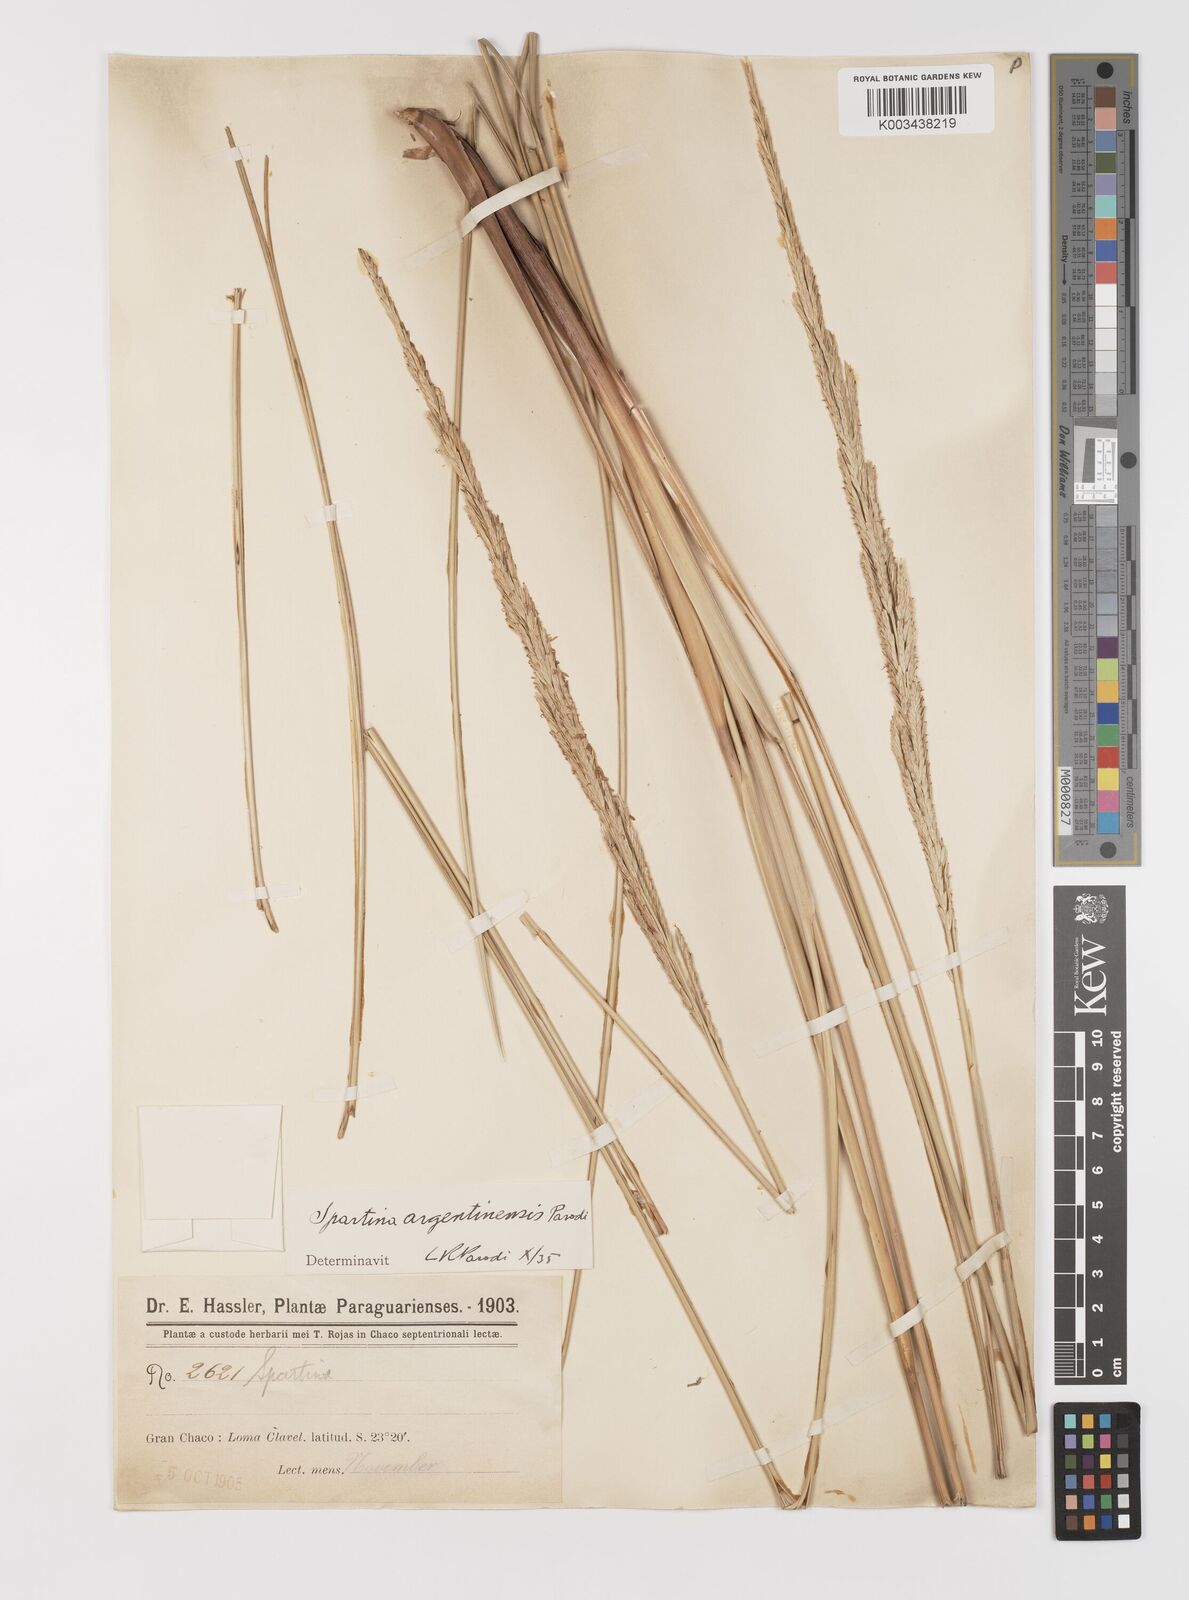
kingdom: Plantae
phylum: Tracheophyta
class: Liliopsida
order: Poales
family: Poaceae
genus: Sporobolus
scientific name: Sporobolus spartinae
